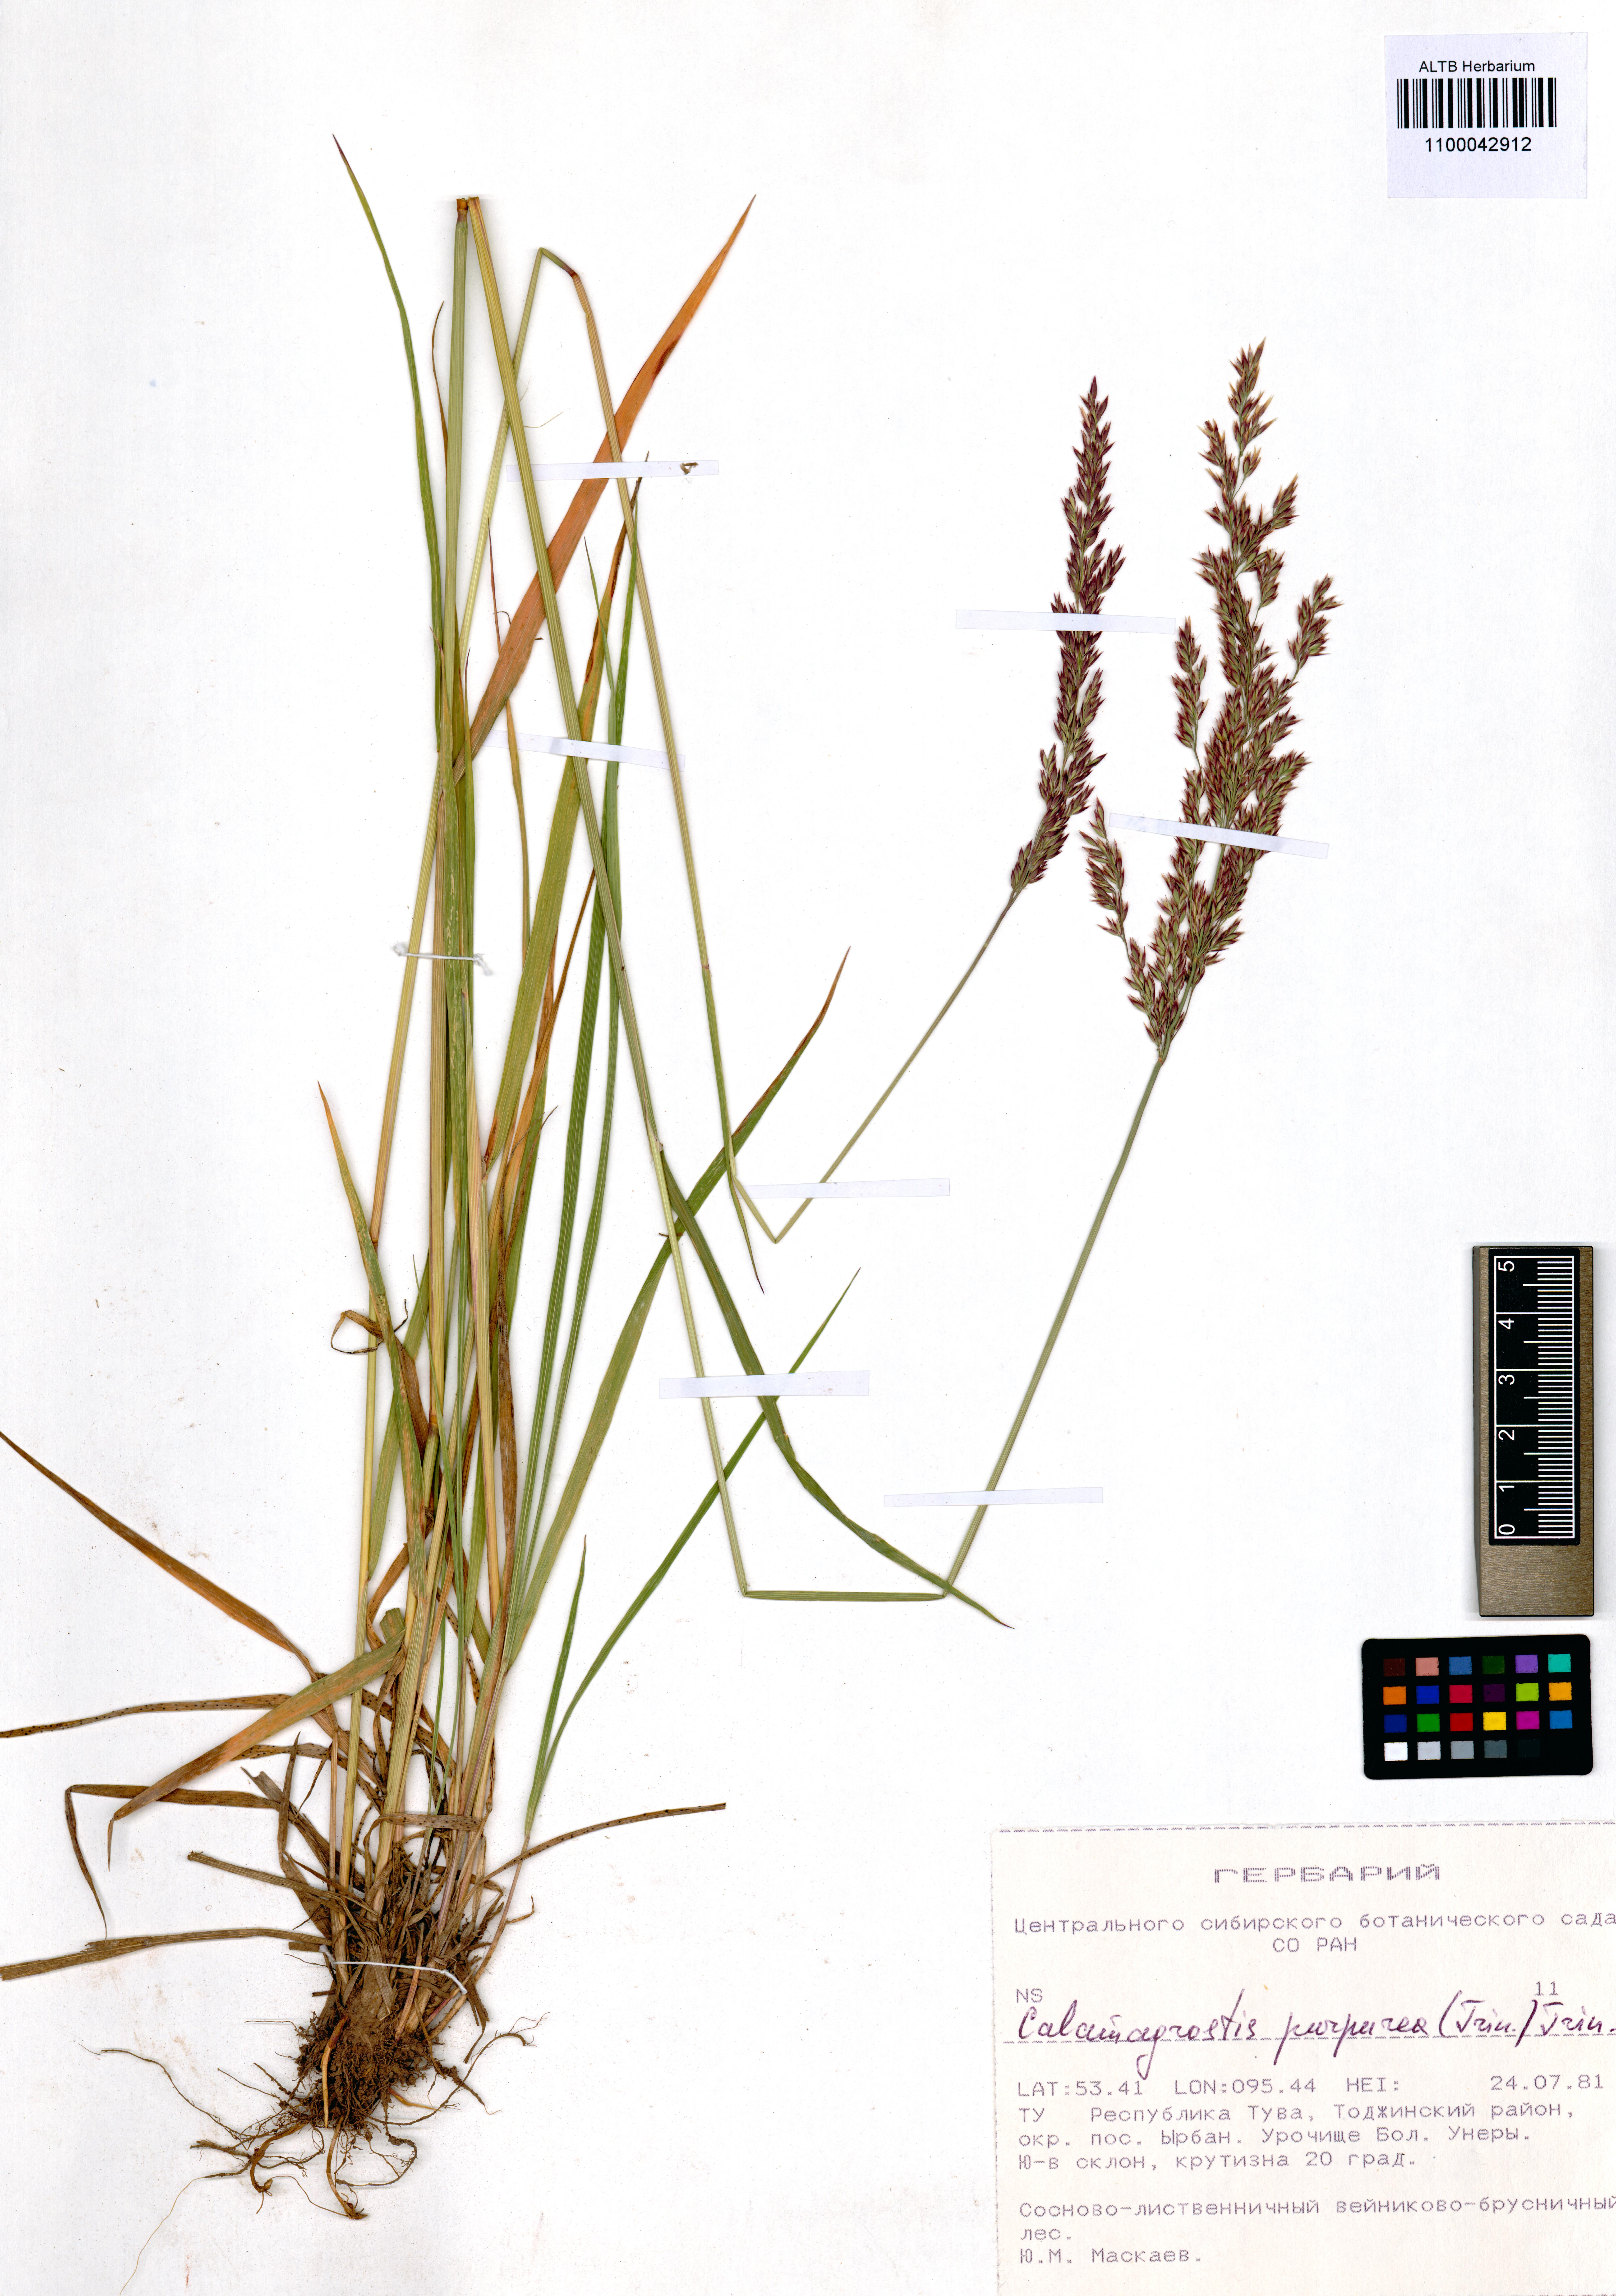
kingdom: Plantae
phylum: Tracheophyta
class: Liliopsida
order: Poales
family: Poaceae
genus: Calamagrostis
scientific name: Calamagrostis purpurea
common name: Scandinavian small-reed
